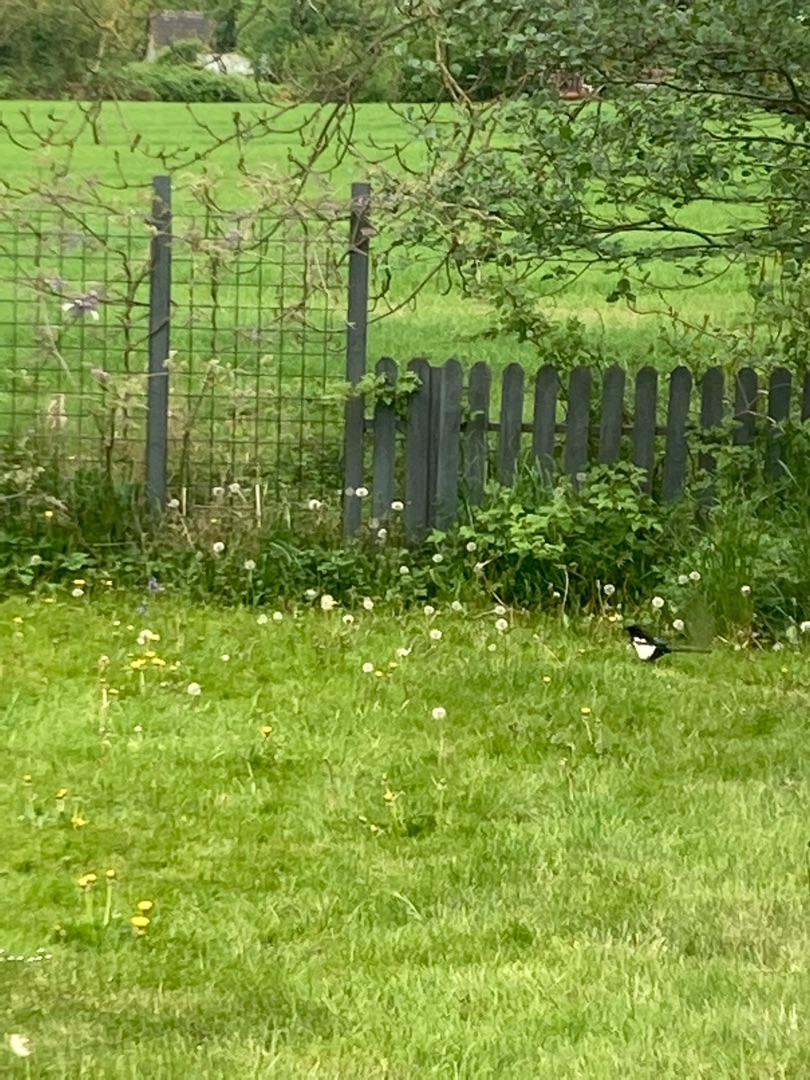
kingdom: Animalia
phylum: Chordata
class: Aves
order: Passeriformes
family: Corvidae
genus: Pica
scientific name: Pica pica
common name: Husskade
